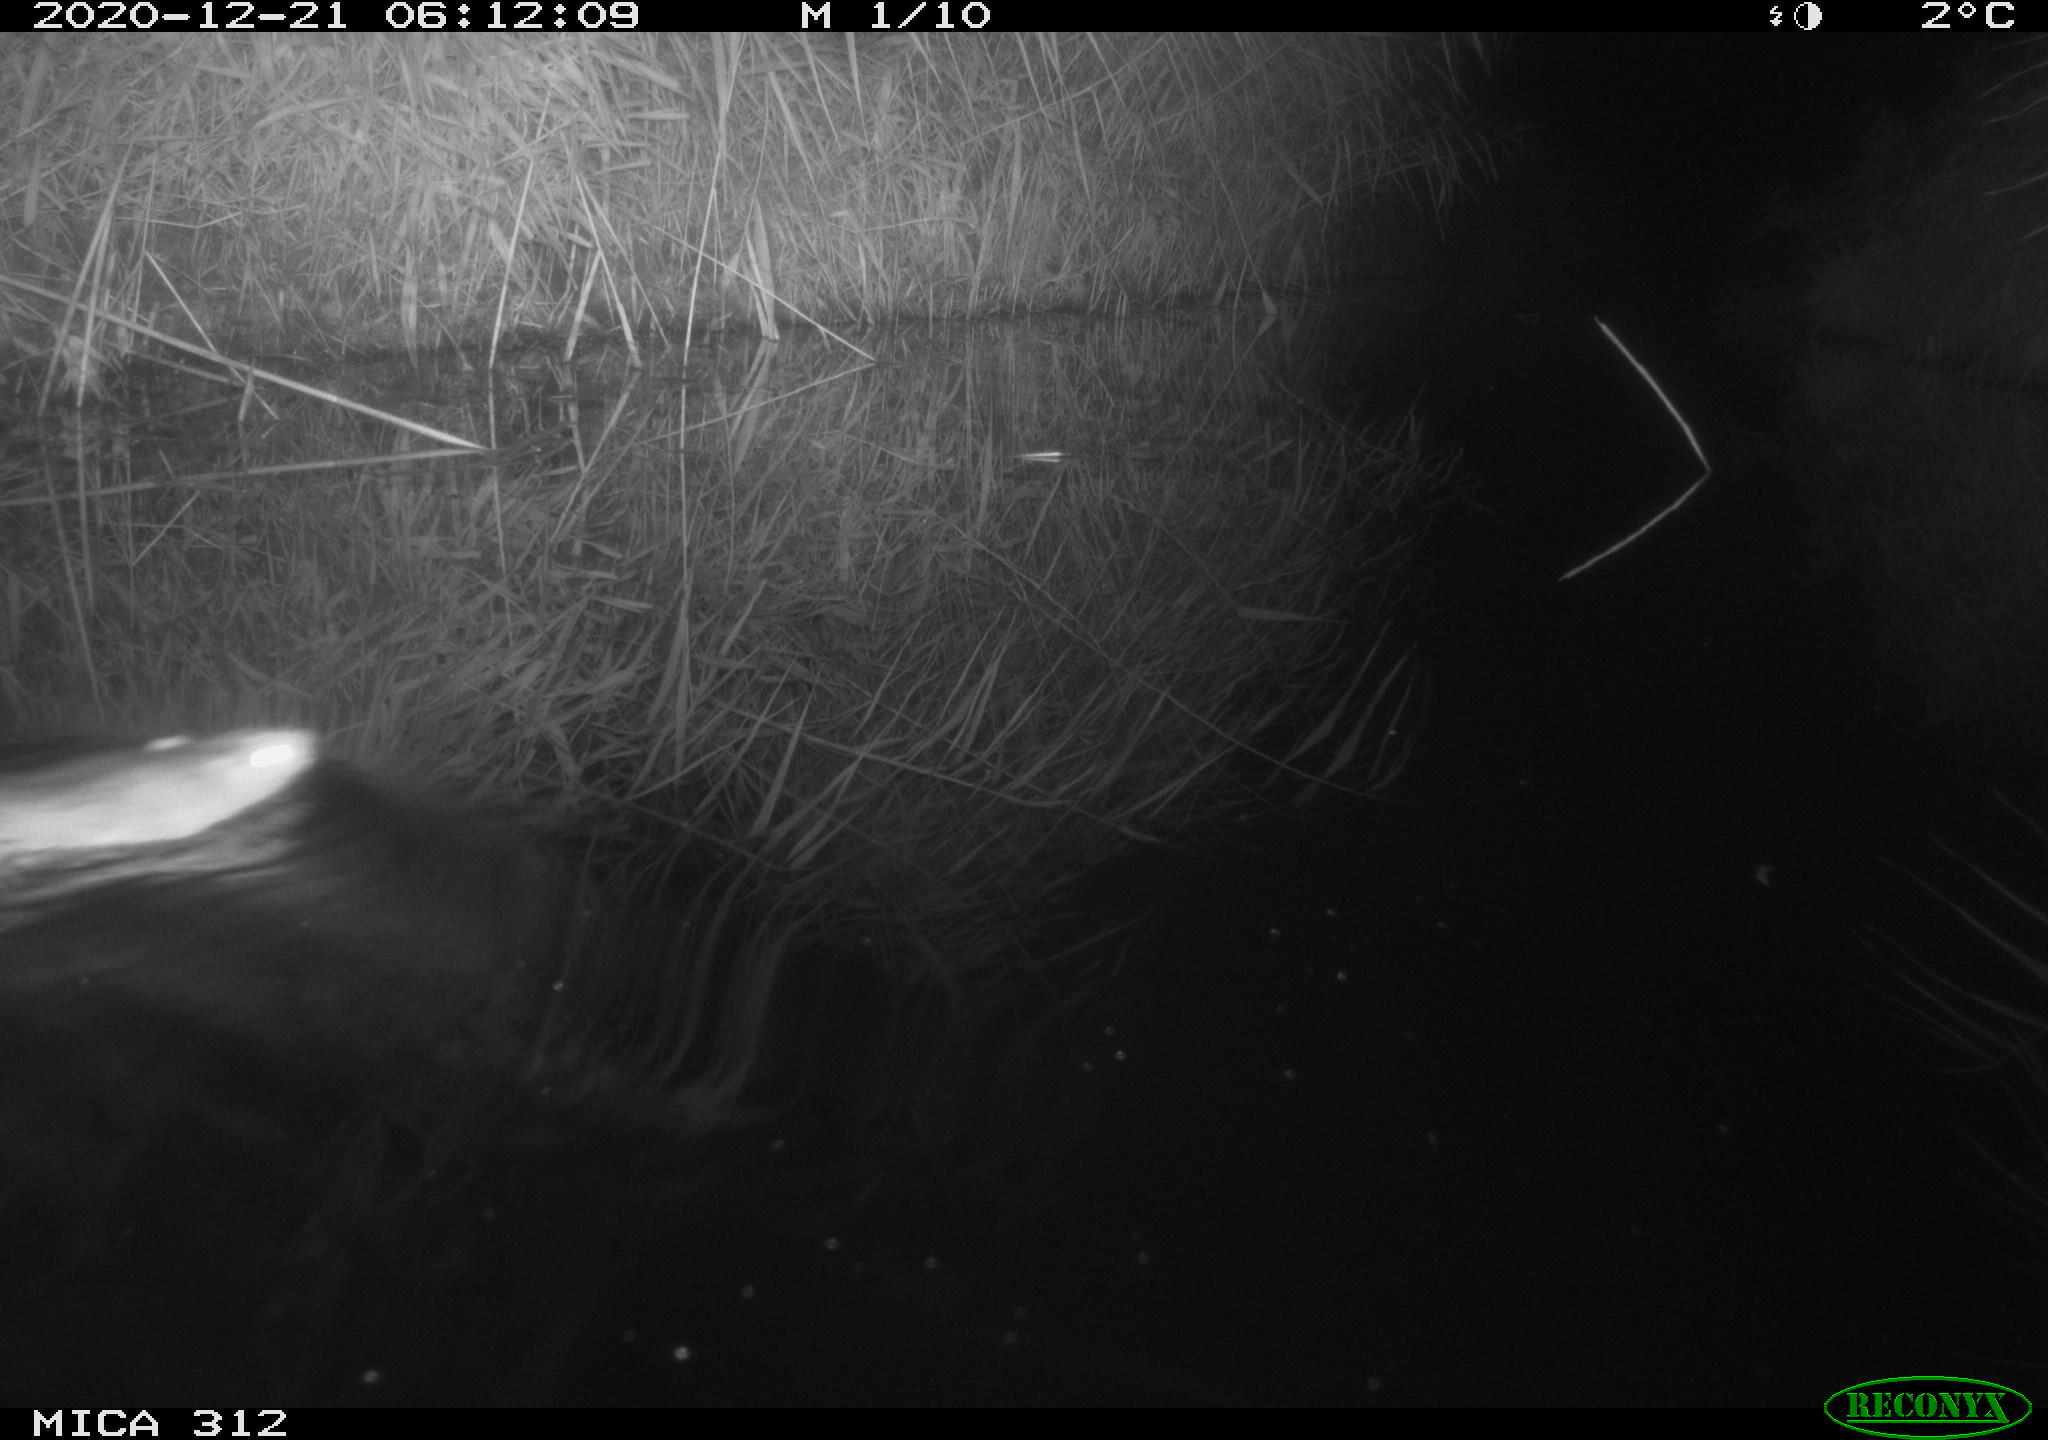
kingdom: Animalia
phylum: Chordata
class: Mammalia
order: Rodentia
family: Muridae
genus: Rattus
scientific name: Rattus norvegicus
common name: Brown rat
